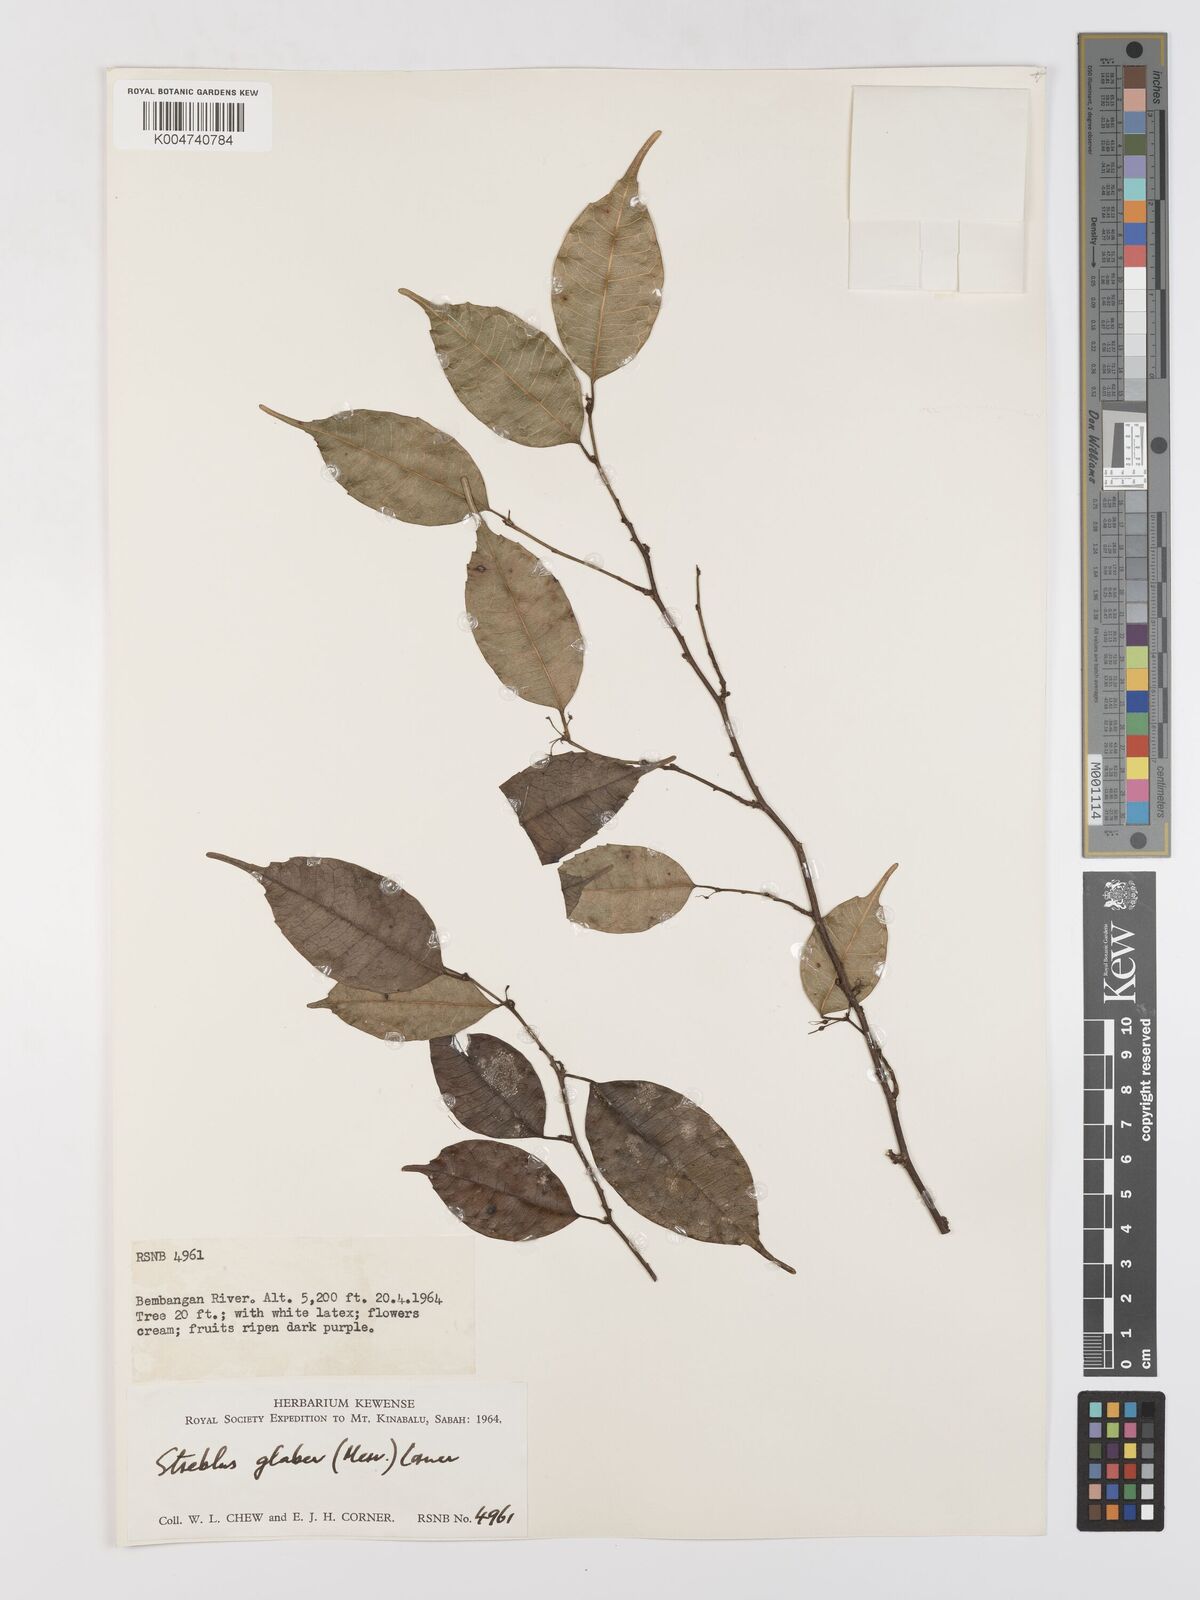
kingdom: Plantae
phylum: Tracheophyta
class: Magnoliopsida
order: Rosales
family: Moraceae
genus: Paratrophis
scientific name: Paratrophis glabra
